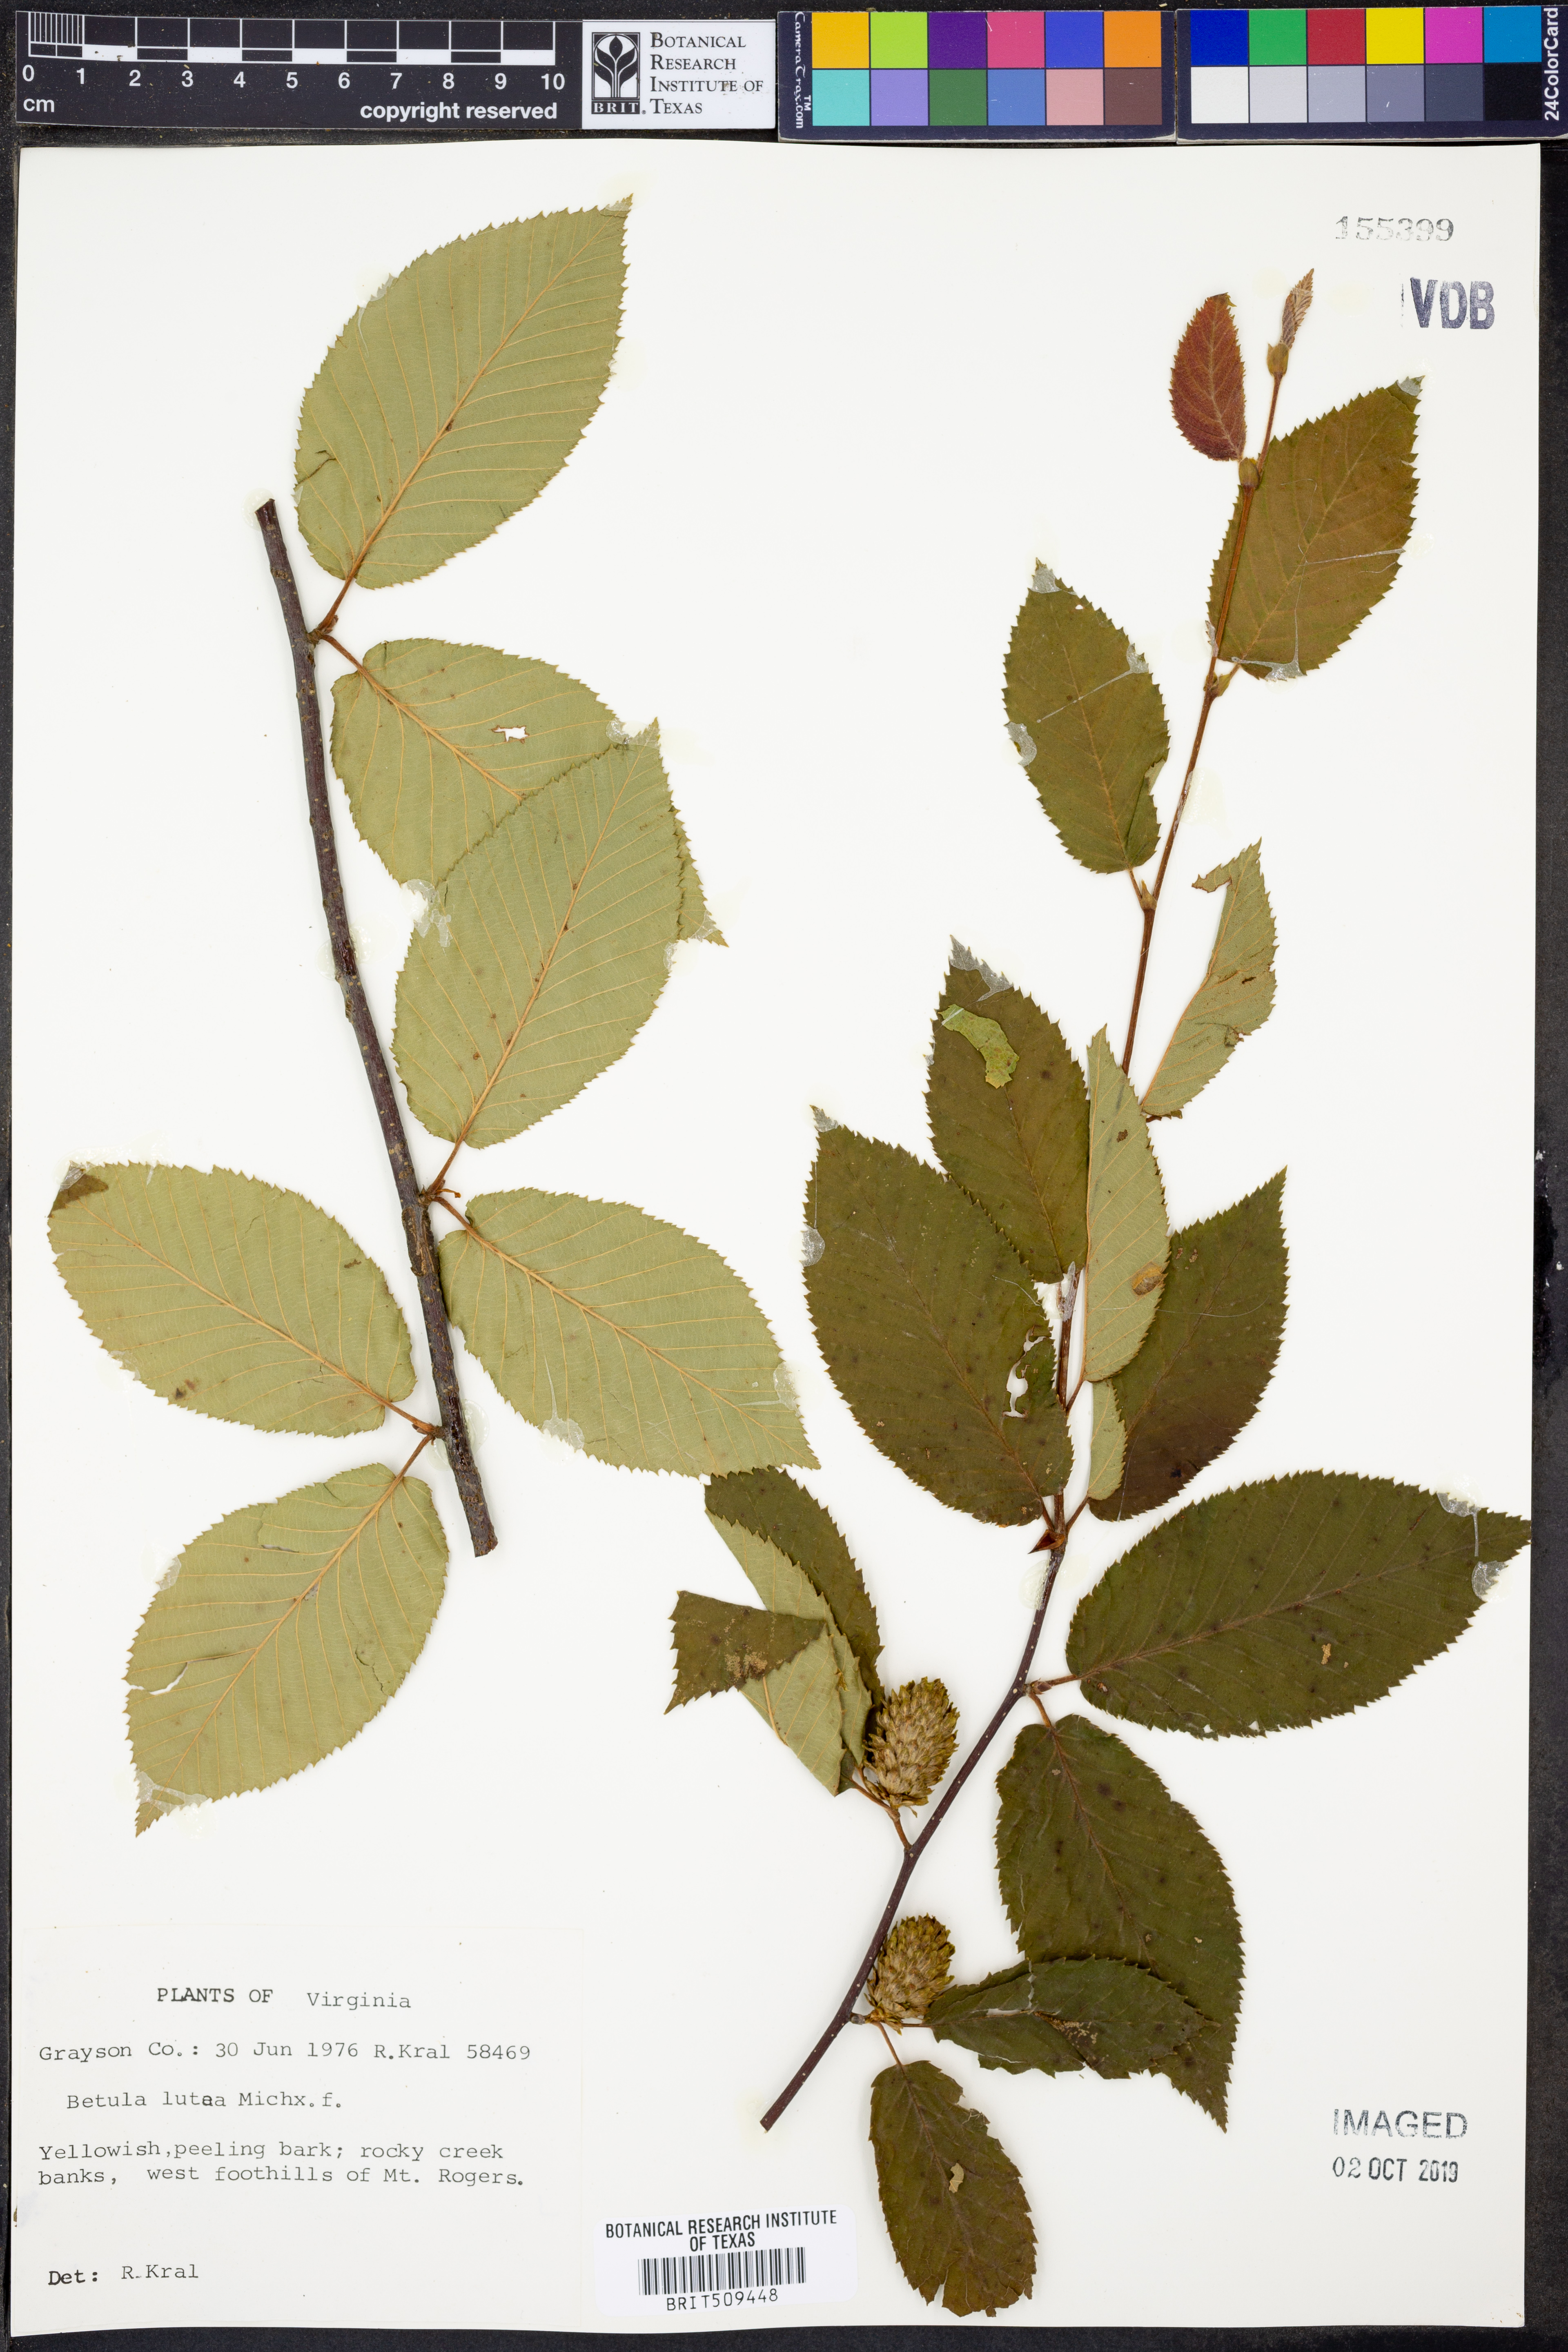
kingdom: Plantae
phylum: Tracheophyta
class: Magnoliopsida
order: Fagales
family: Betulaceae
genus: Betula
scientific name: Betula alleghaniensis
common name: Yellow birch
